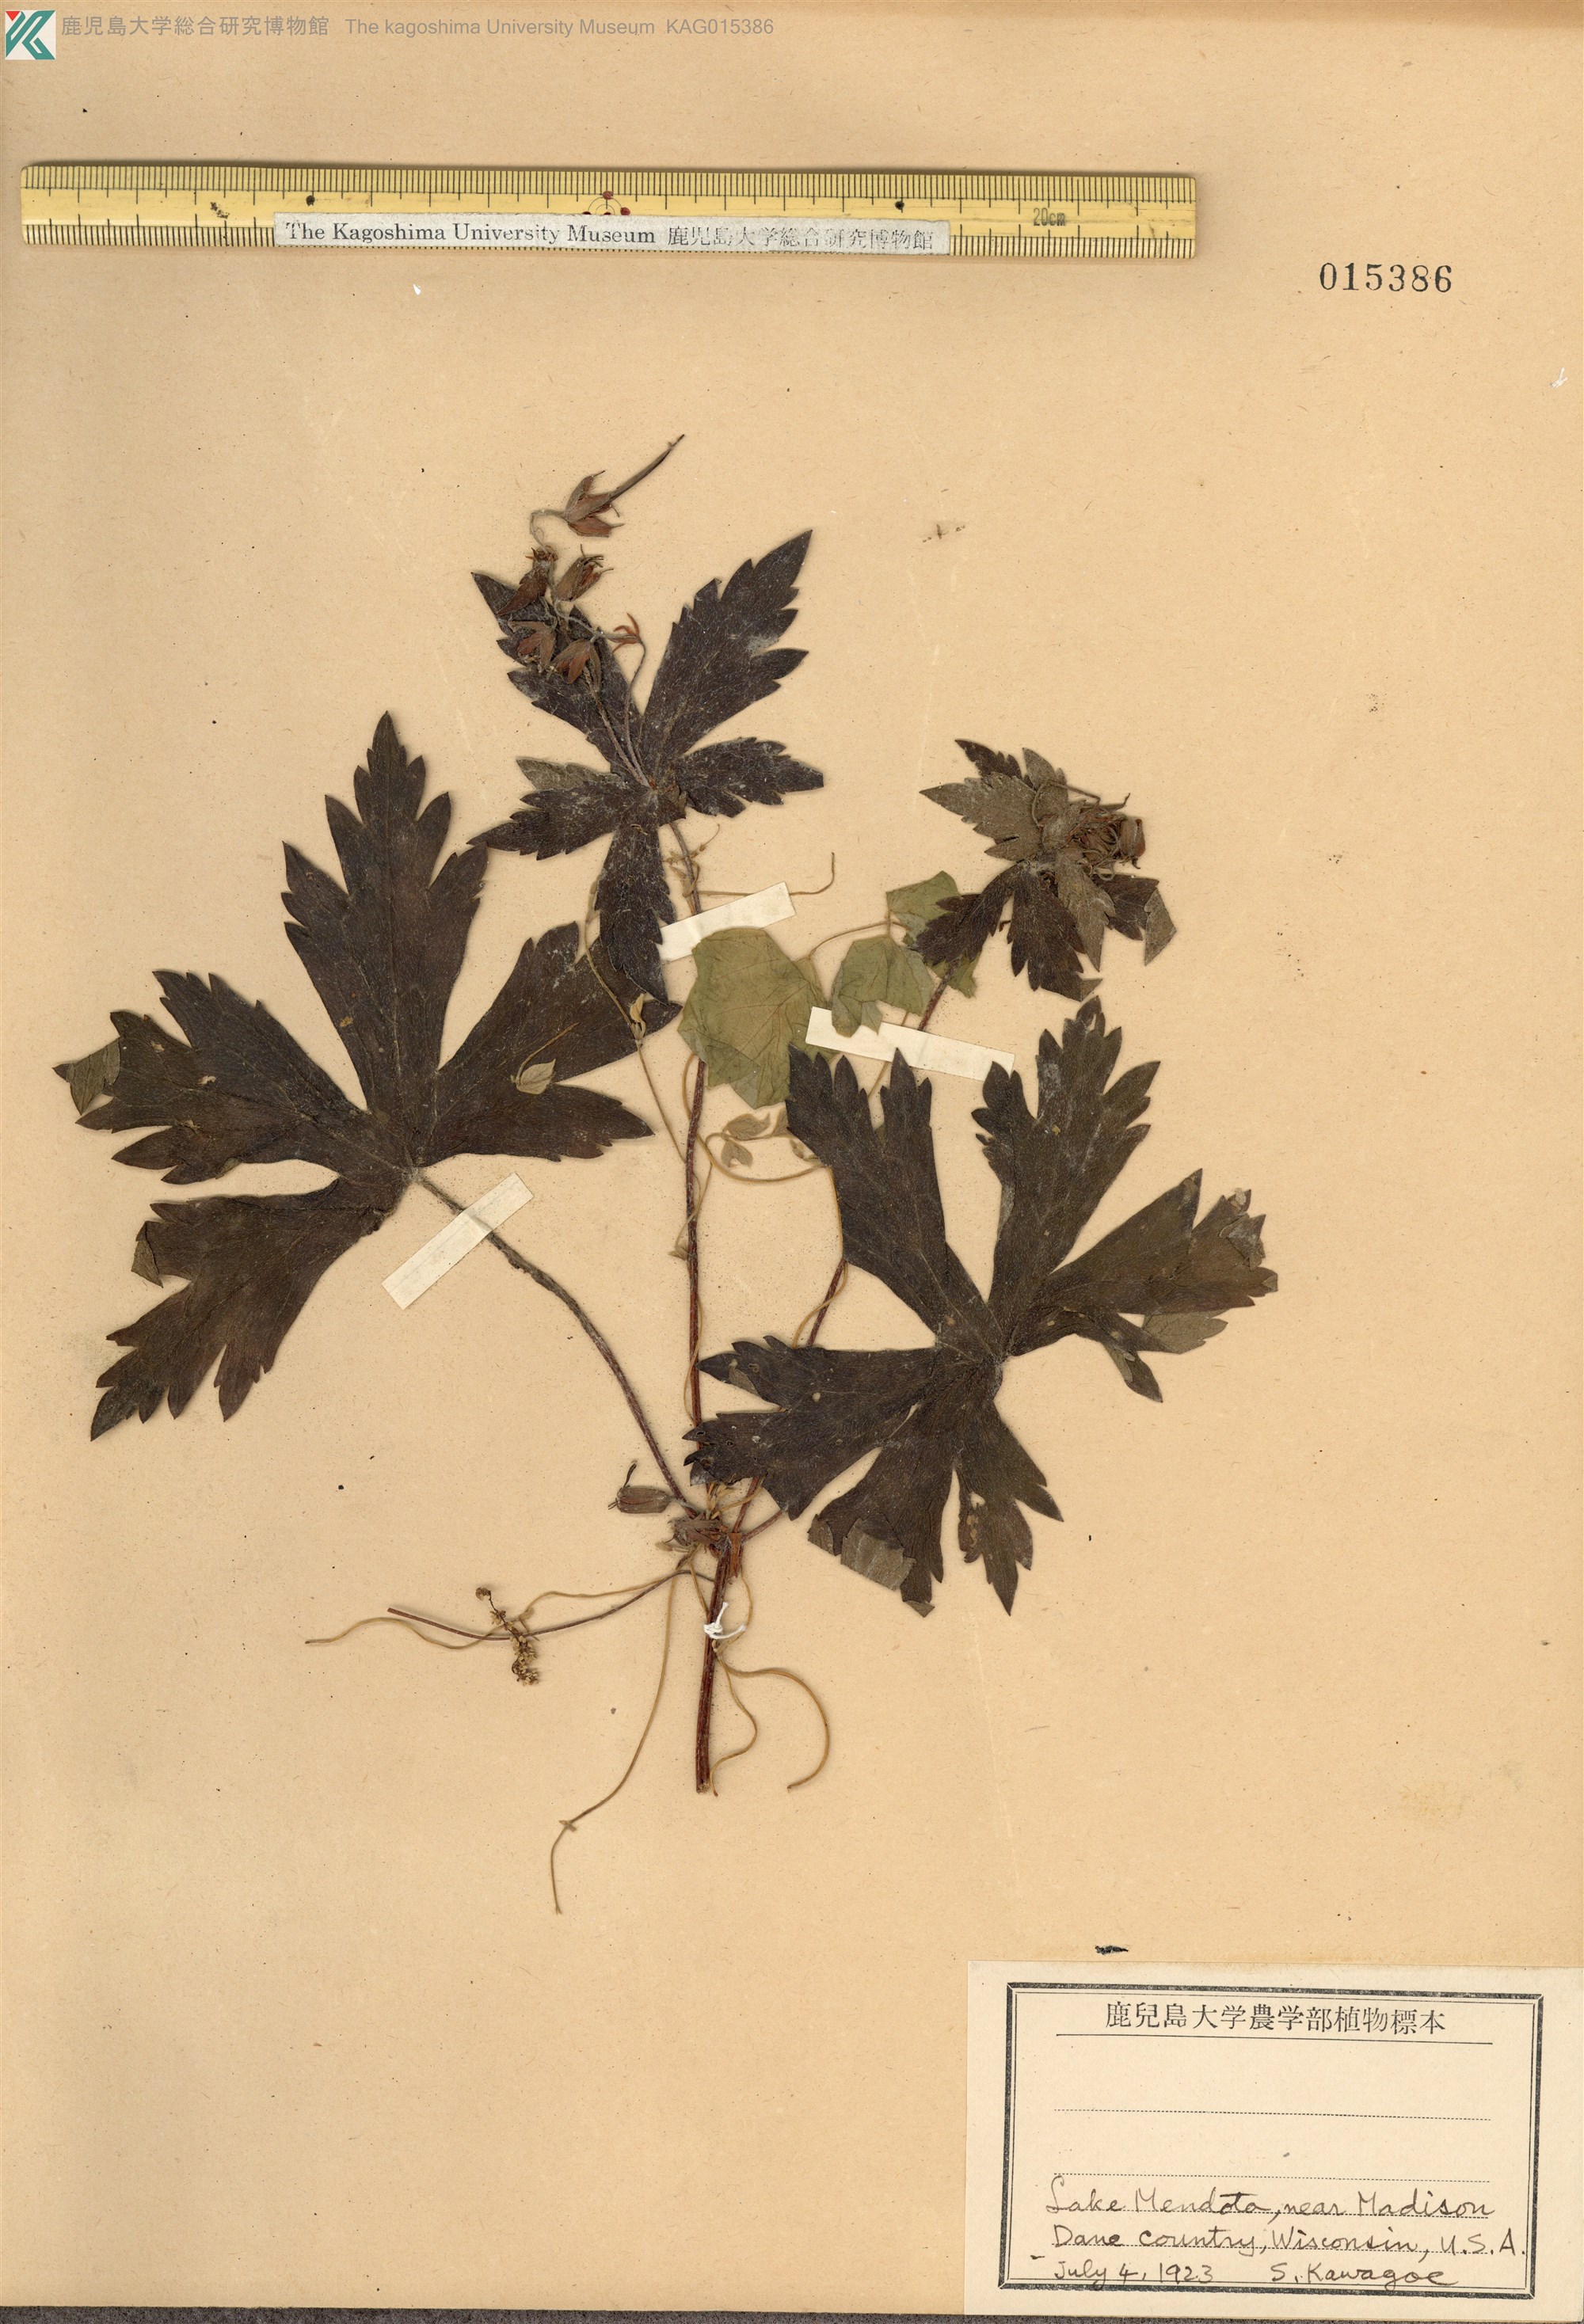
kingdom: Plantae
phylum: Tracheophyta
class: Magnoliopsida
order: Geraniales
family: Geraniaceae
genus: Geranium
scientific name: Geranium maculatum
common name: Spotted geranium
